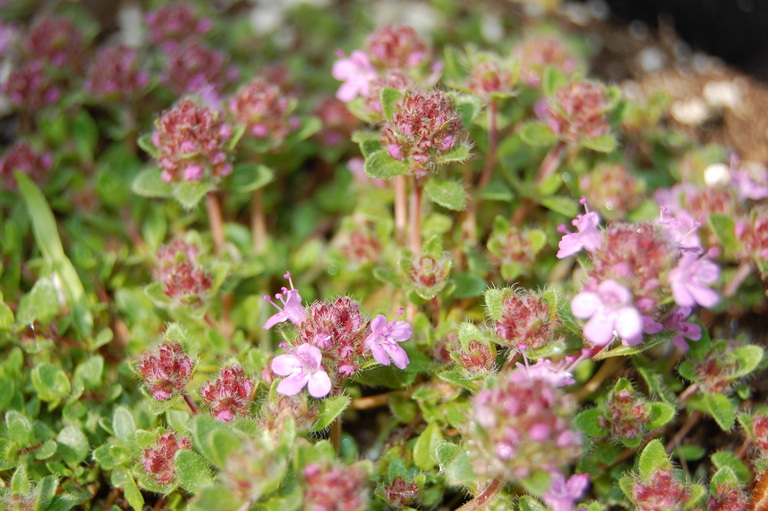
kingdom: Plantae
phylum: Tracheophyta
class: Magnoliopsida
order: Lamiales
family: Lamiaceae
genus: Thymus
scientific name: Thymus praecox
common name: Wild thyme
